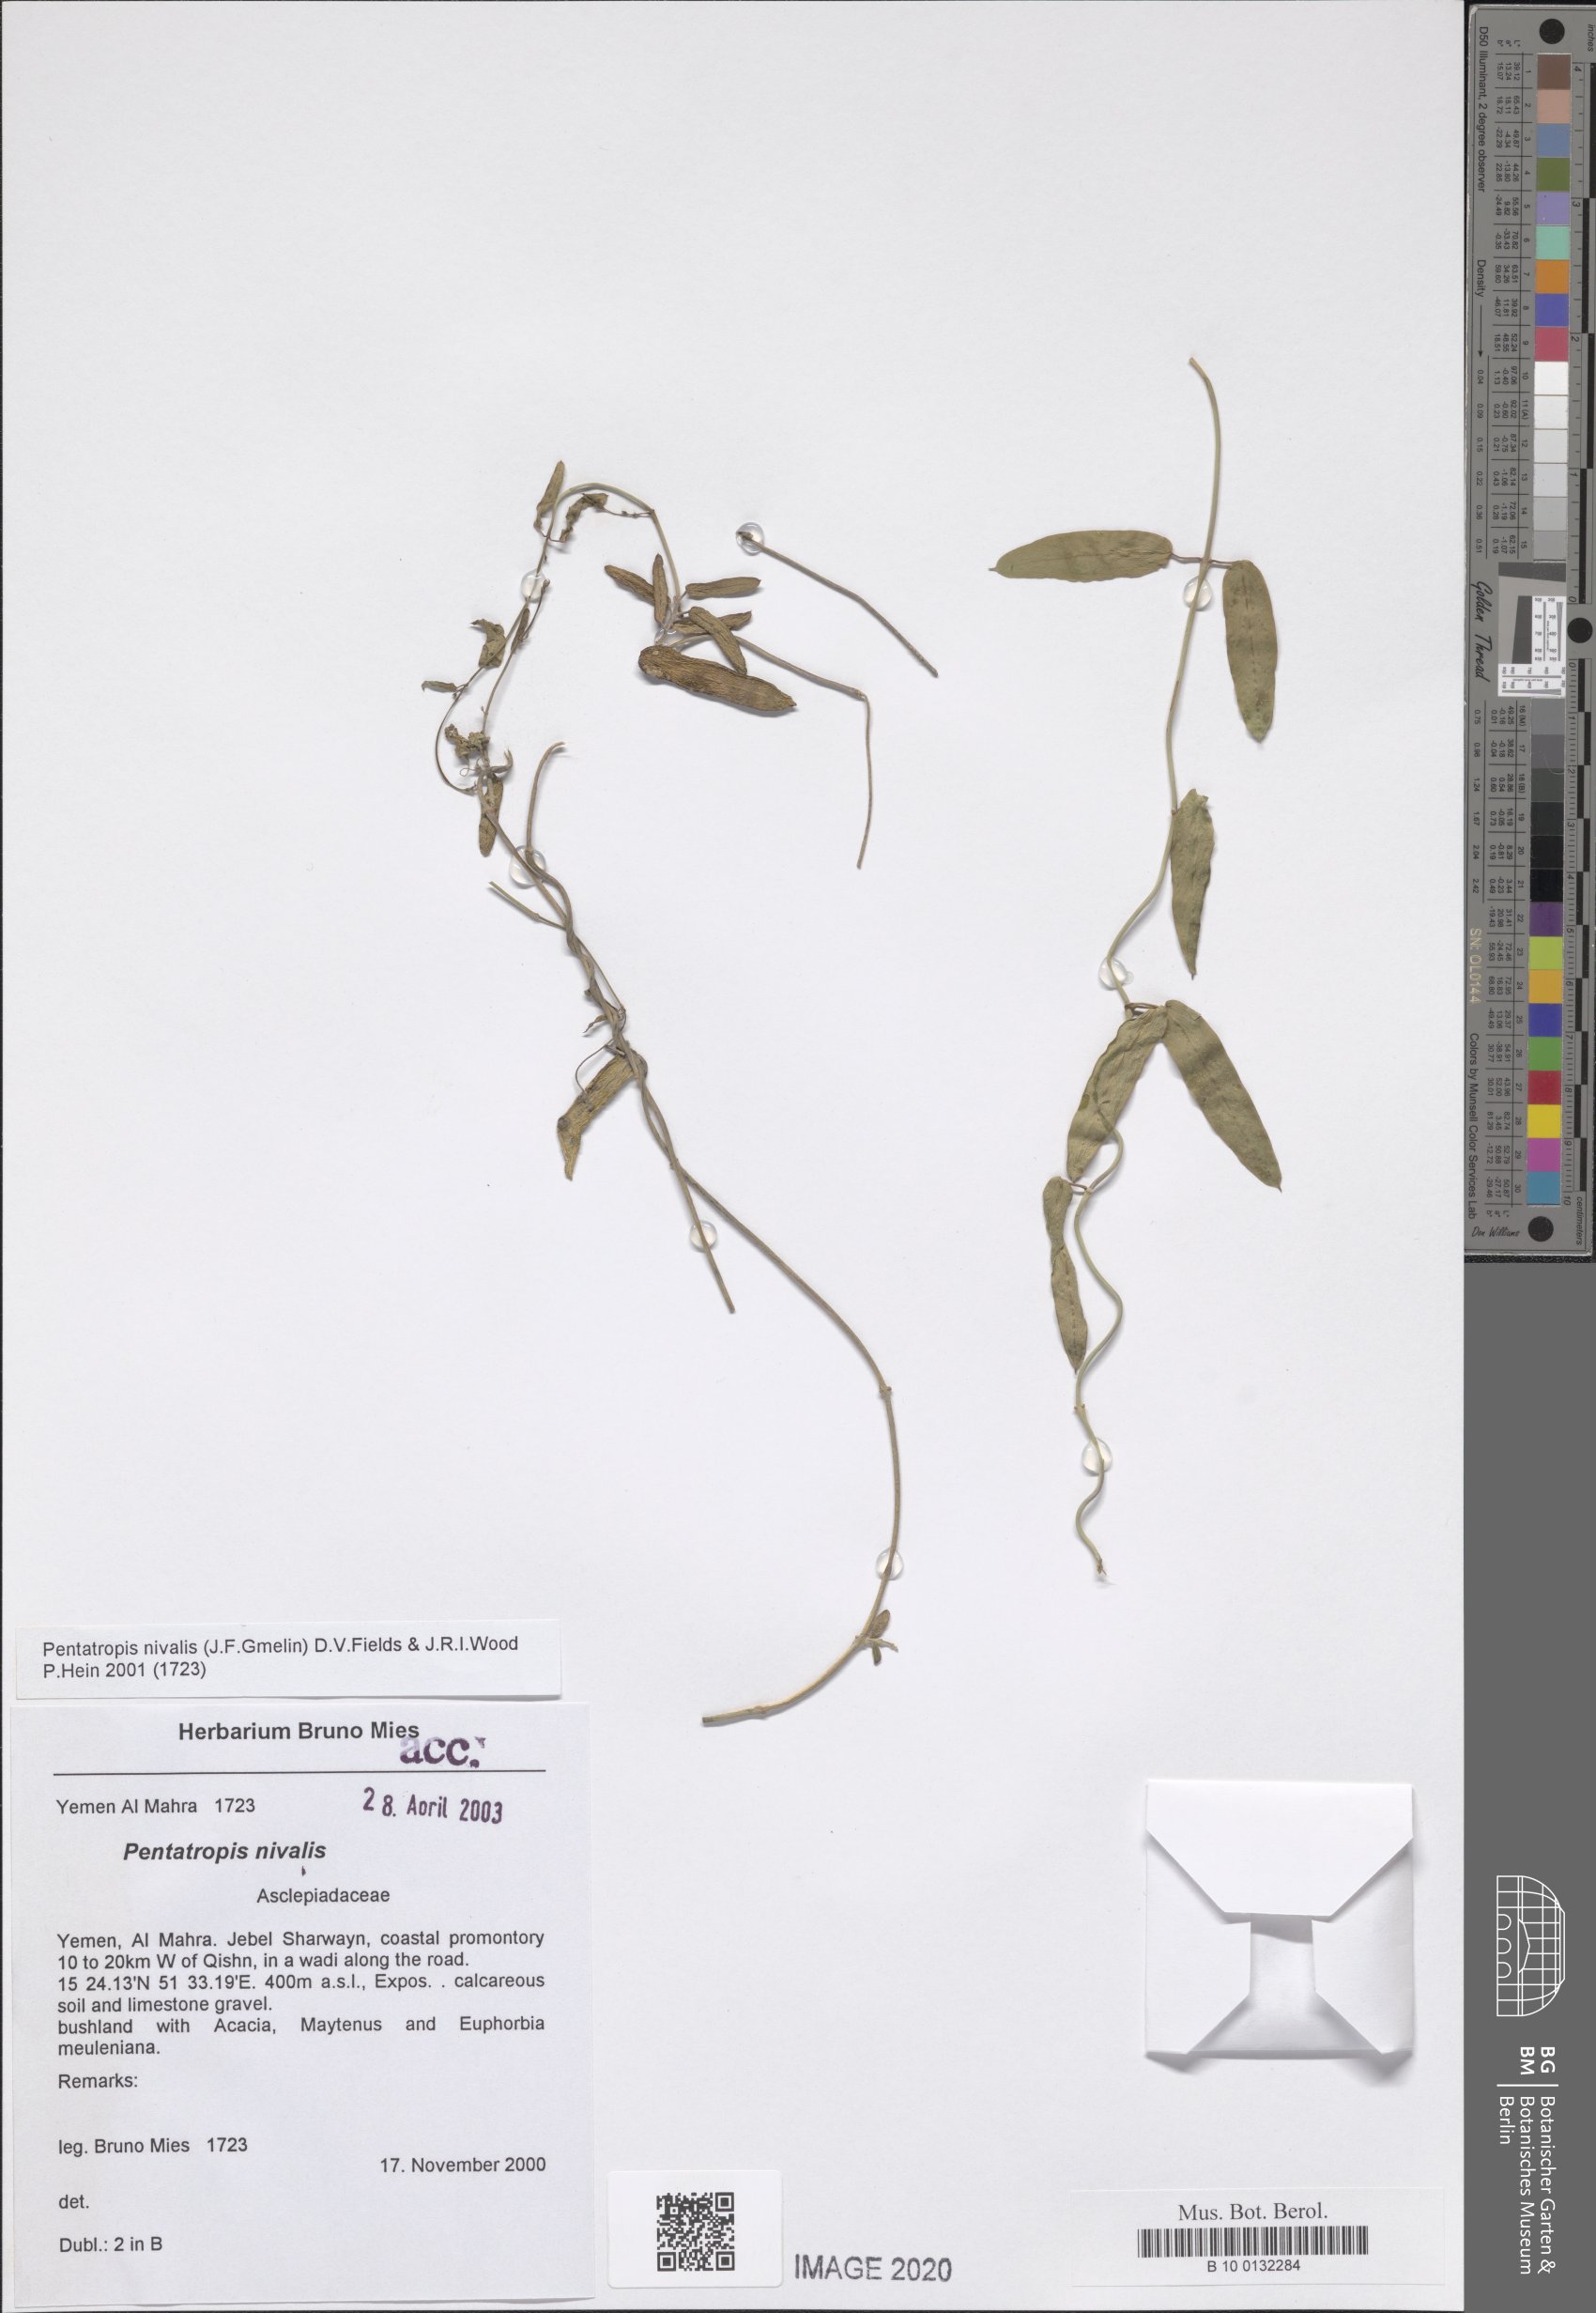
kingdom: Plantae
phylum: Tracheophyta
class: Magnoliopsida
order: Gentianales
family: Apocynaceae
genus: Pentatropis
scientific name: Pentatropis nivalis
